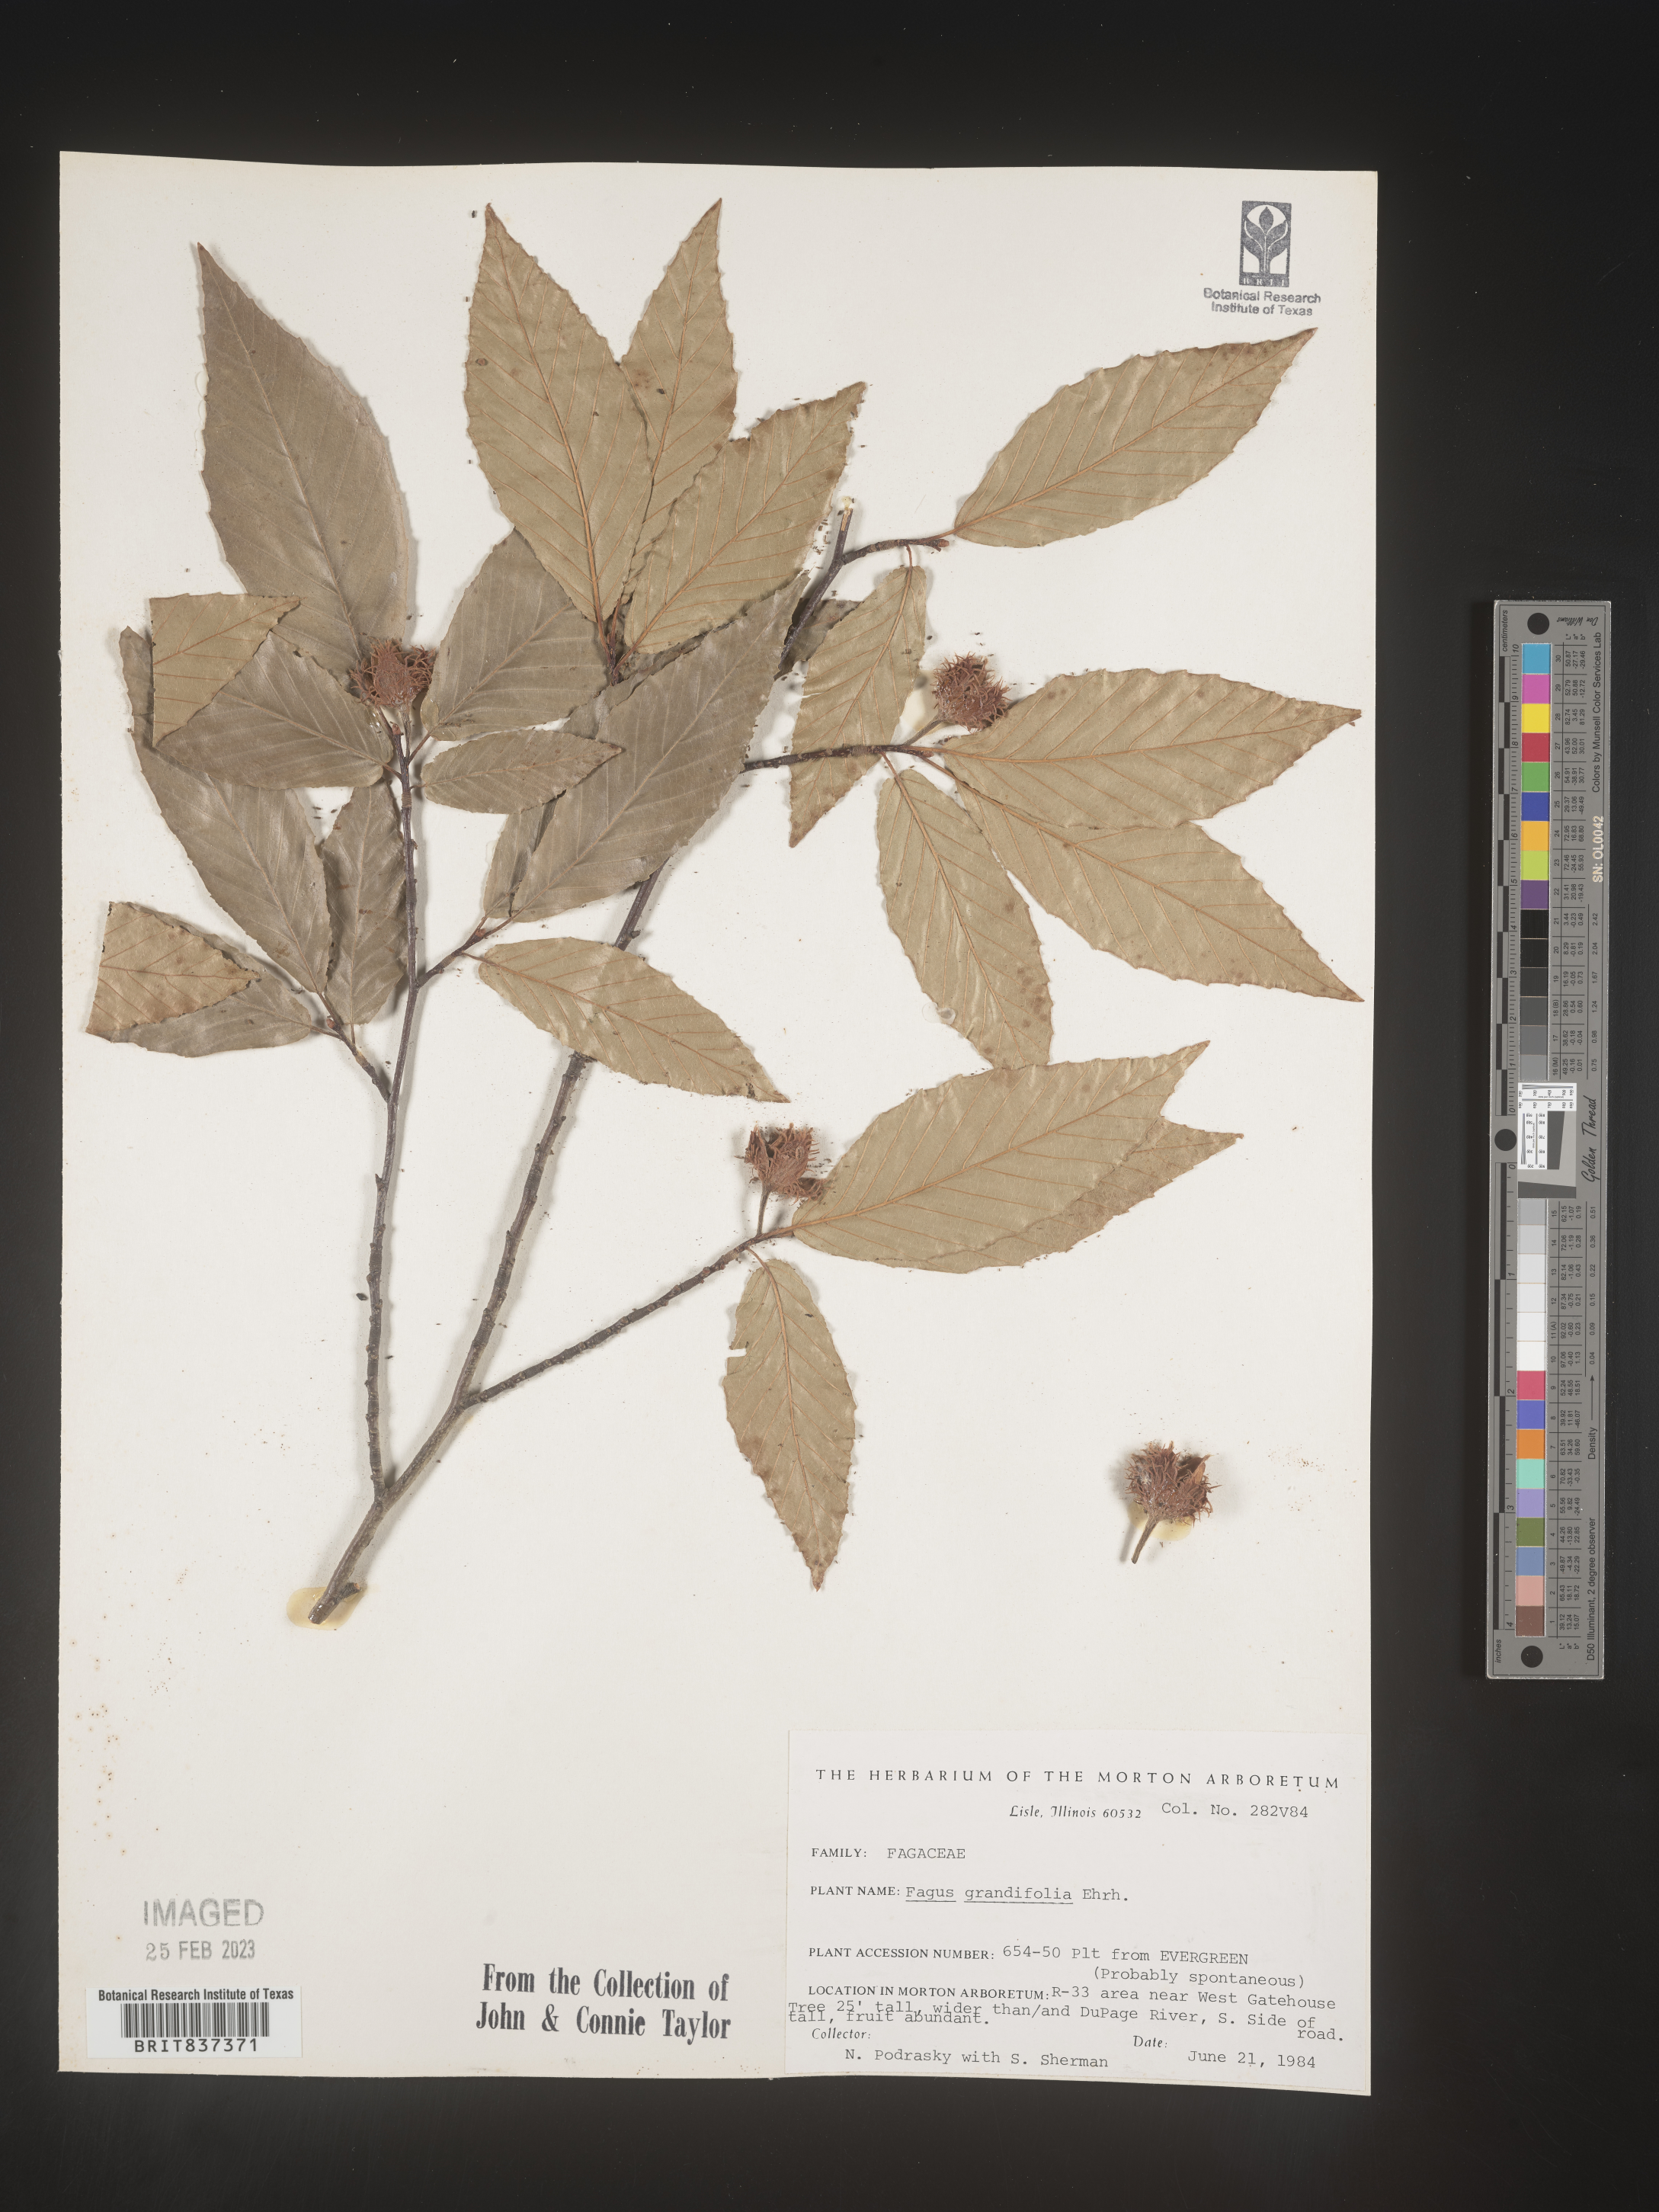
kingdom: Plantae
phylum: Tracheophyta
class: Magnoliopsida
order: Fagales
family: Fagaceae
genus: Fagus
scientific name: Fagus grandifolia
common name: American beech
